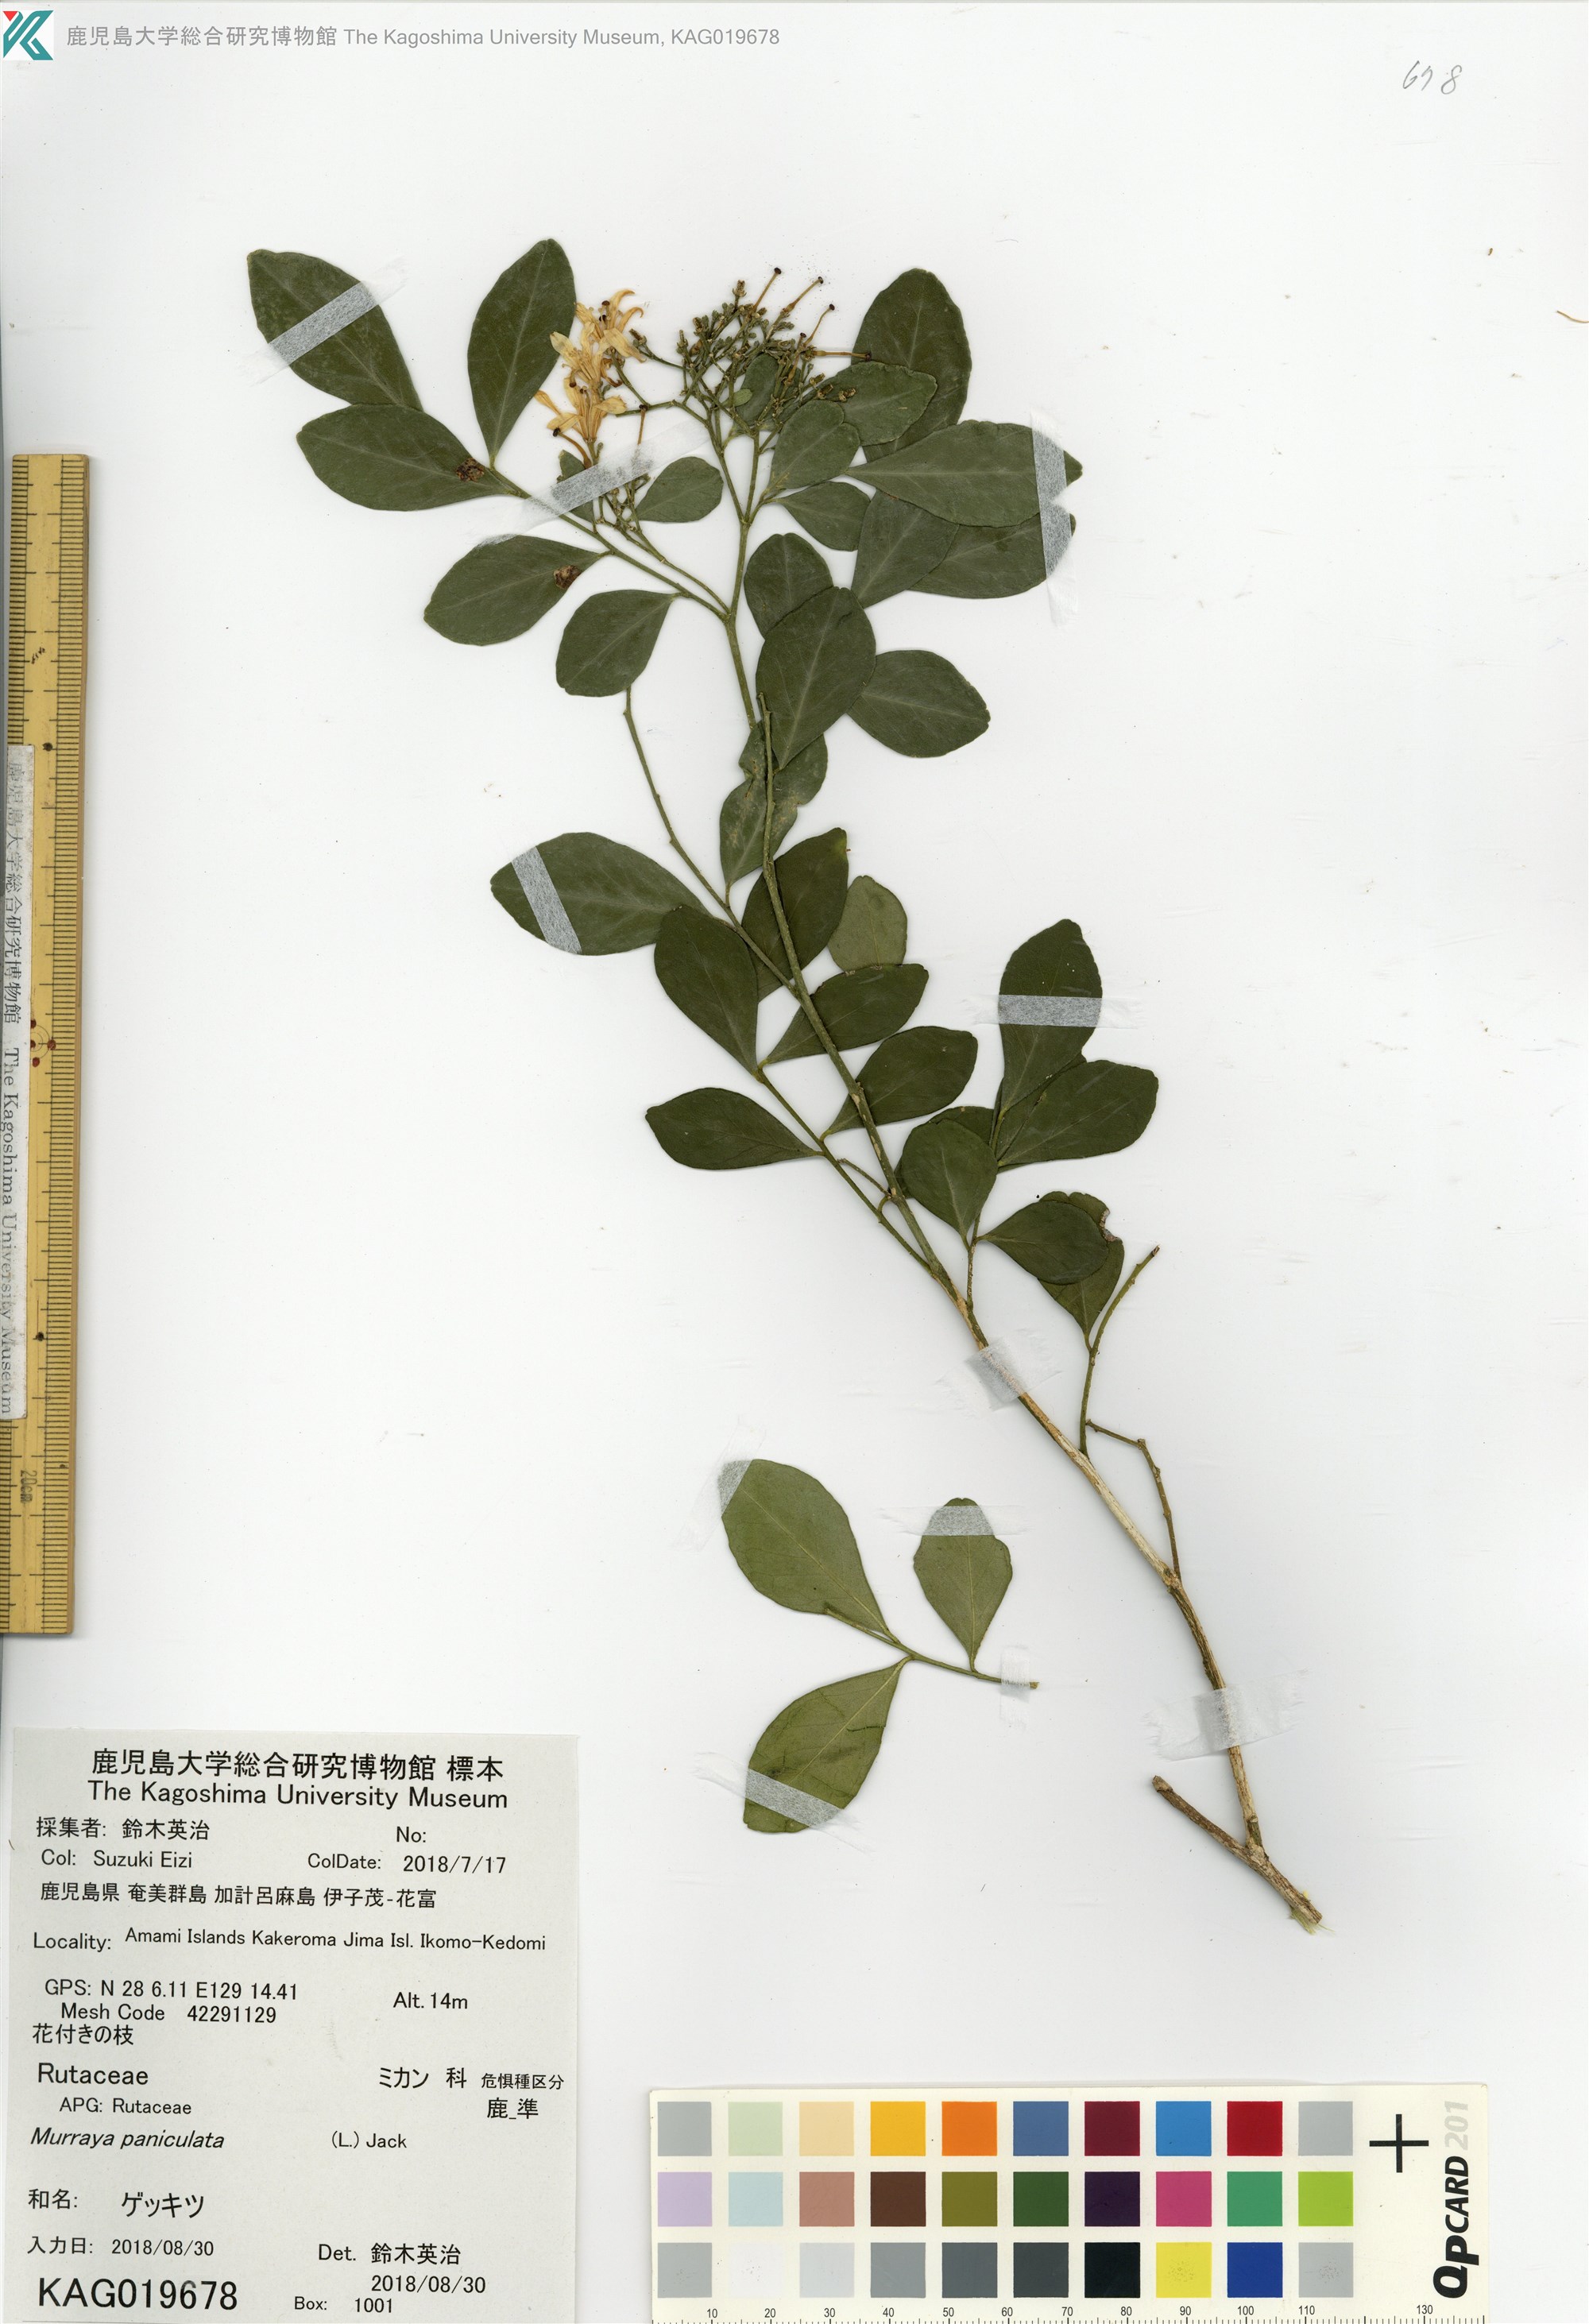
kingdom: Plantae
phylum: Tracheophyta
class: Magnoliopsida
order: Sapindales
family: Rutaceae
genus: Murraya
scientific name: Murraya paniculata
